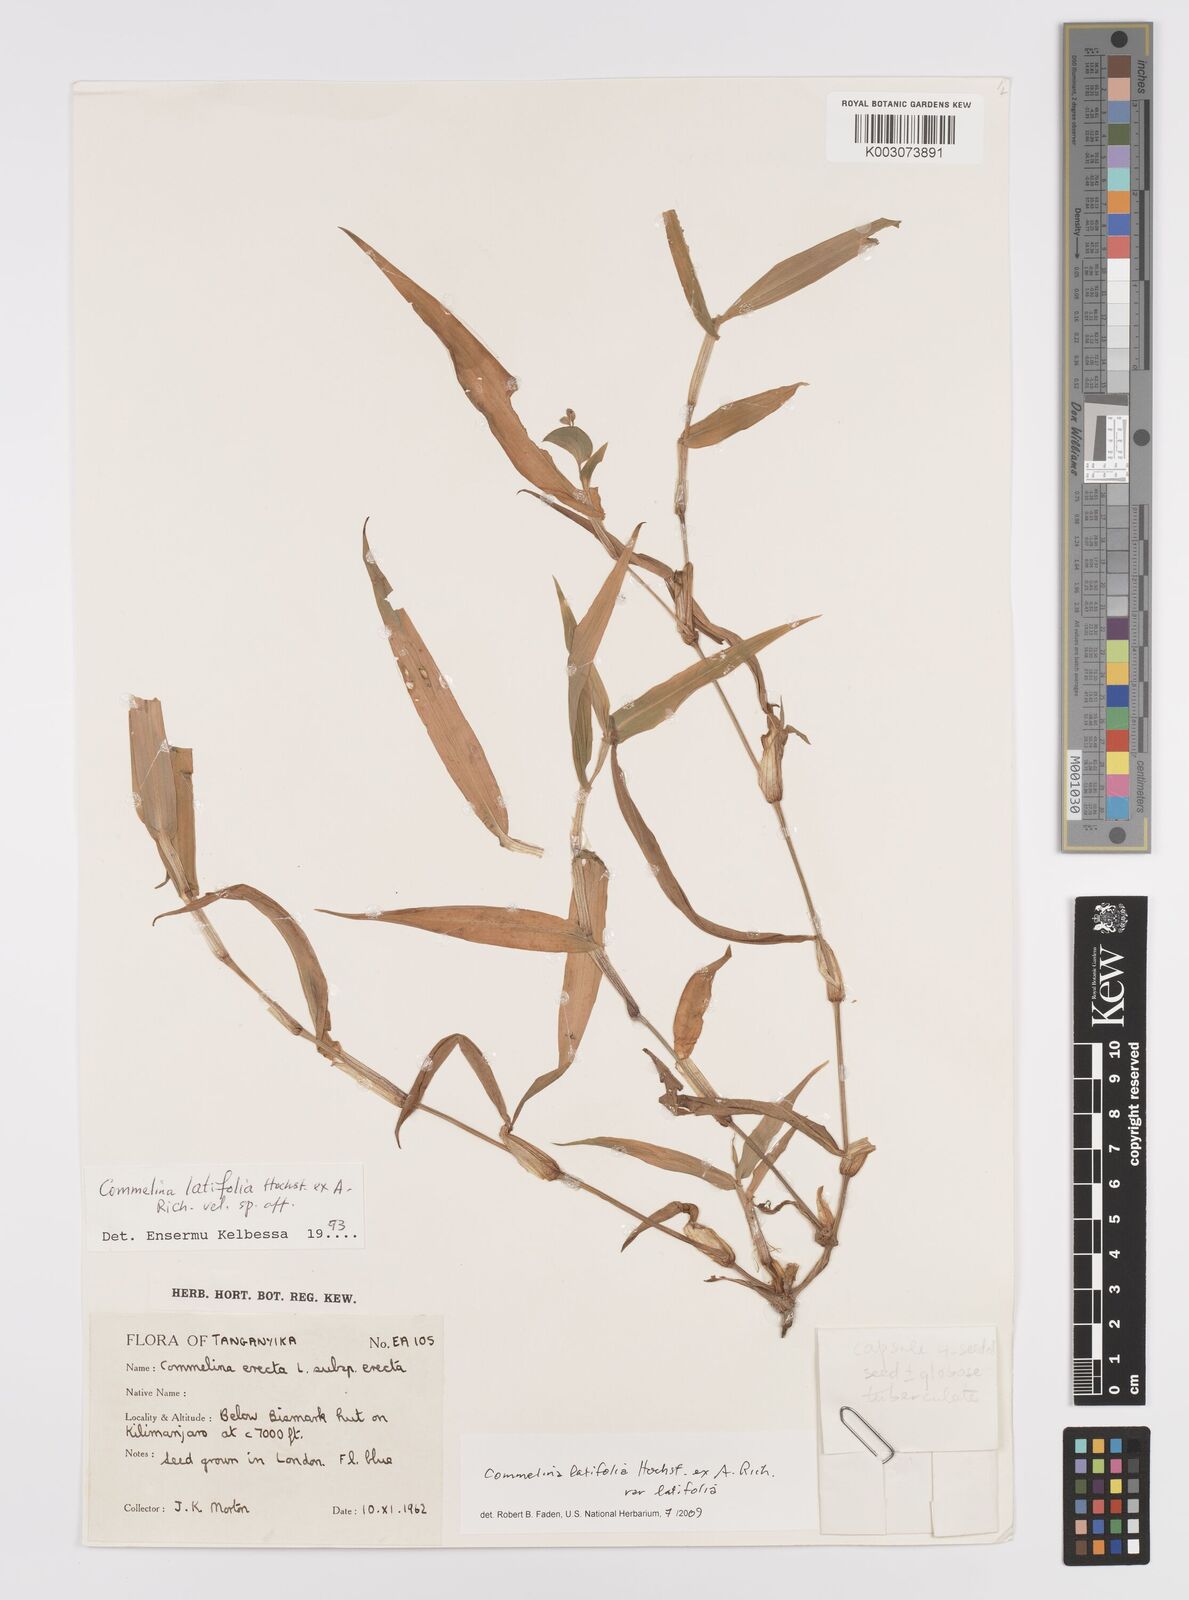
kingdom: Plantae
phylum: Tracheophyta
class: Liliopsida
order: Commelinales
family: Commelinaceae
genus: Commelina
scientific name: Commelina latifolia
